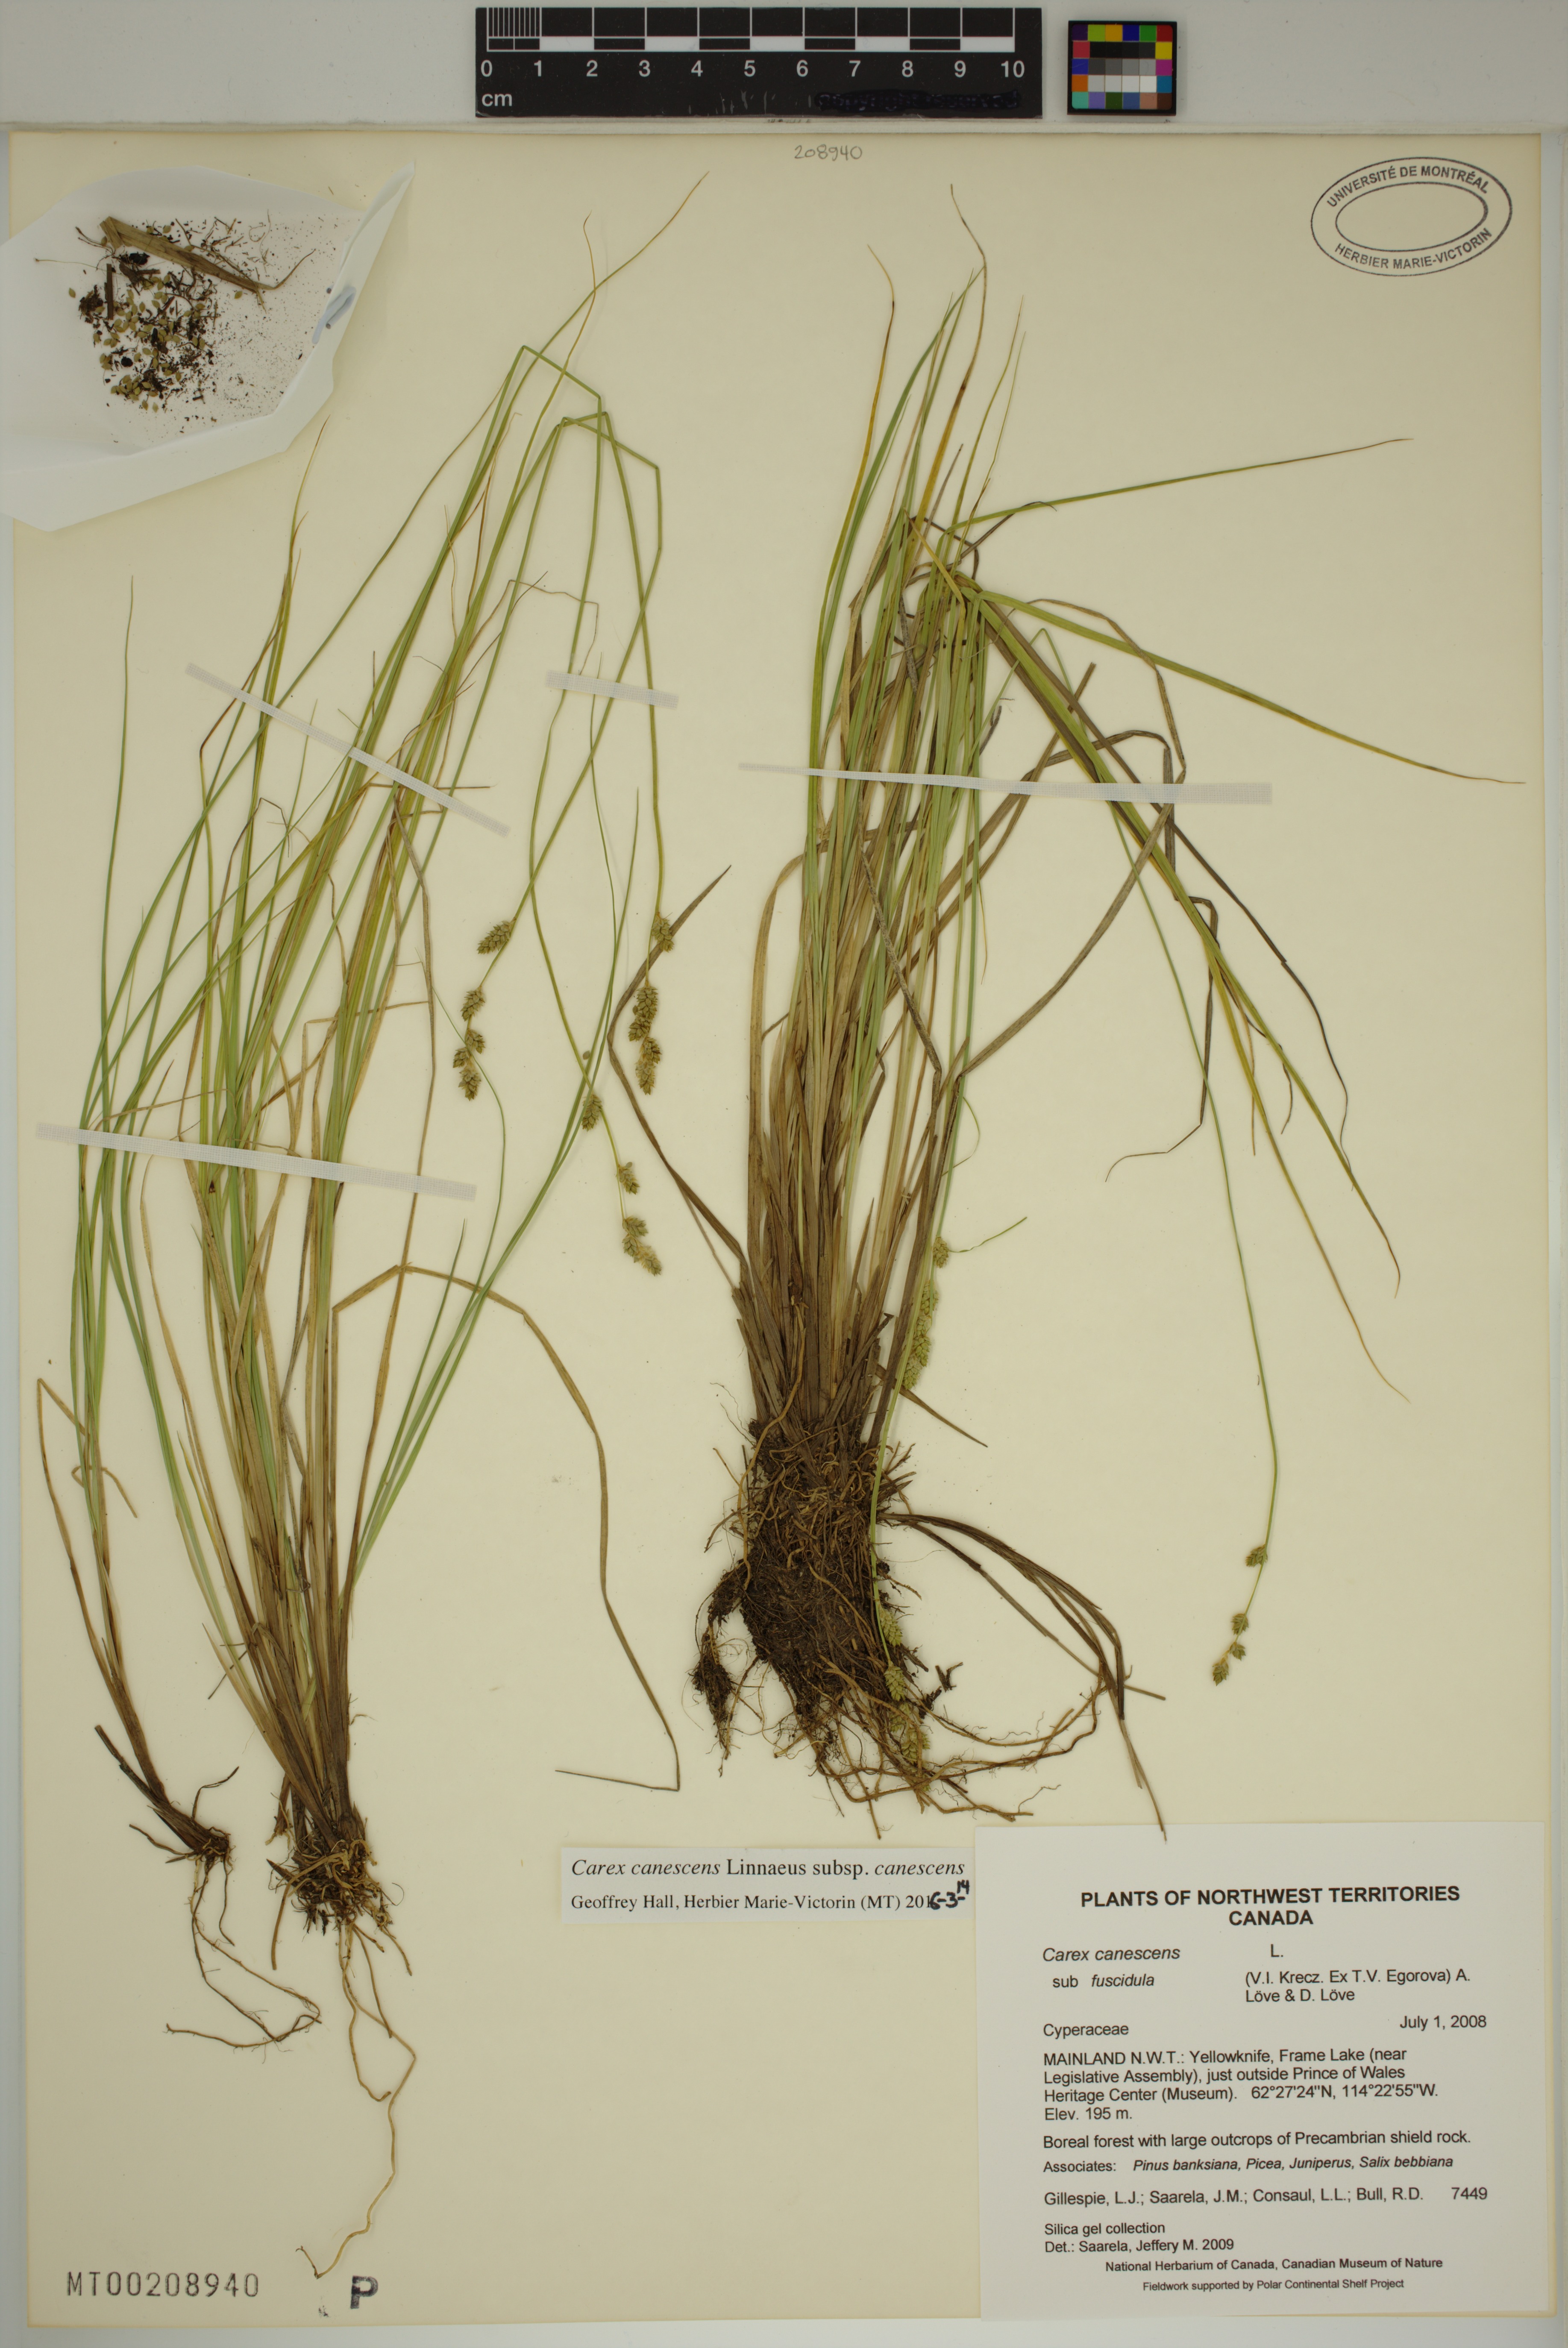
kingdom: Plantae
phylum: Tracheophyta
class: Liliopsida
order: Poales
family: Cyperaceae
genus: Carex
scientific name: Carex canescens
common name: White sedge
